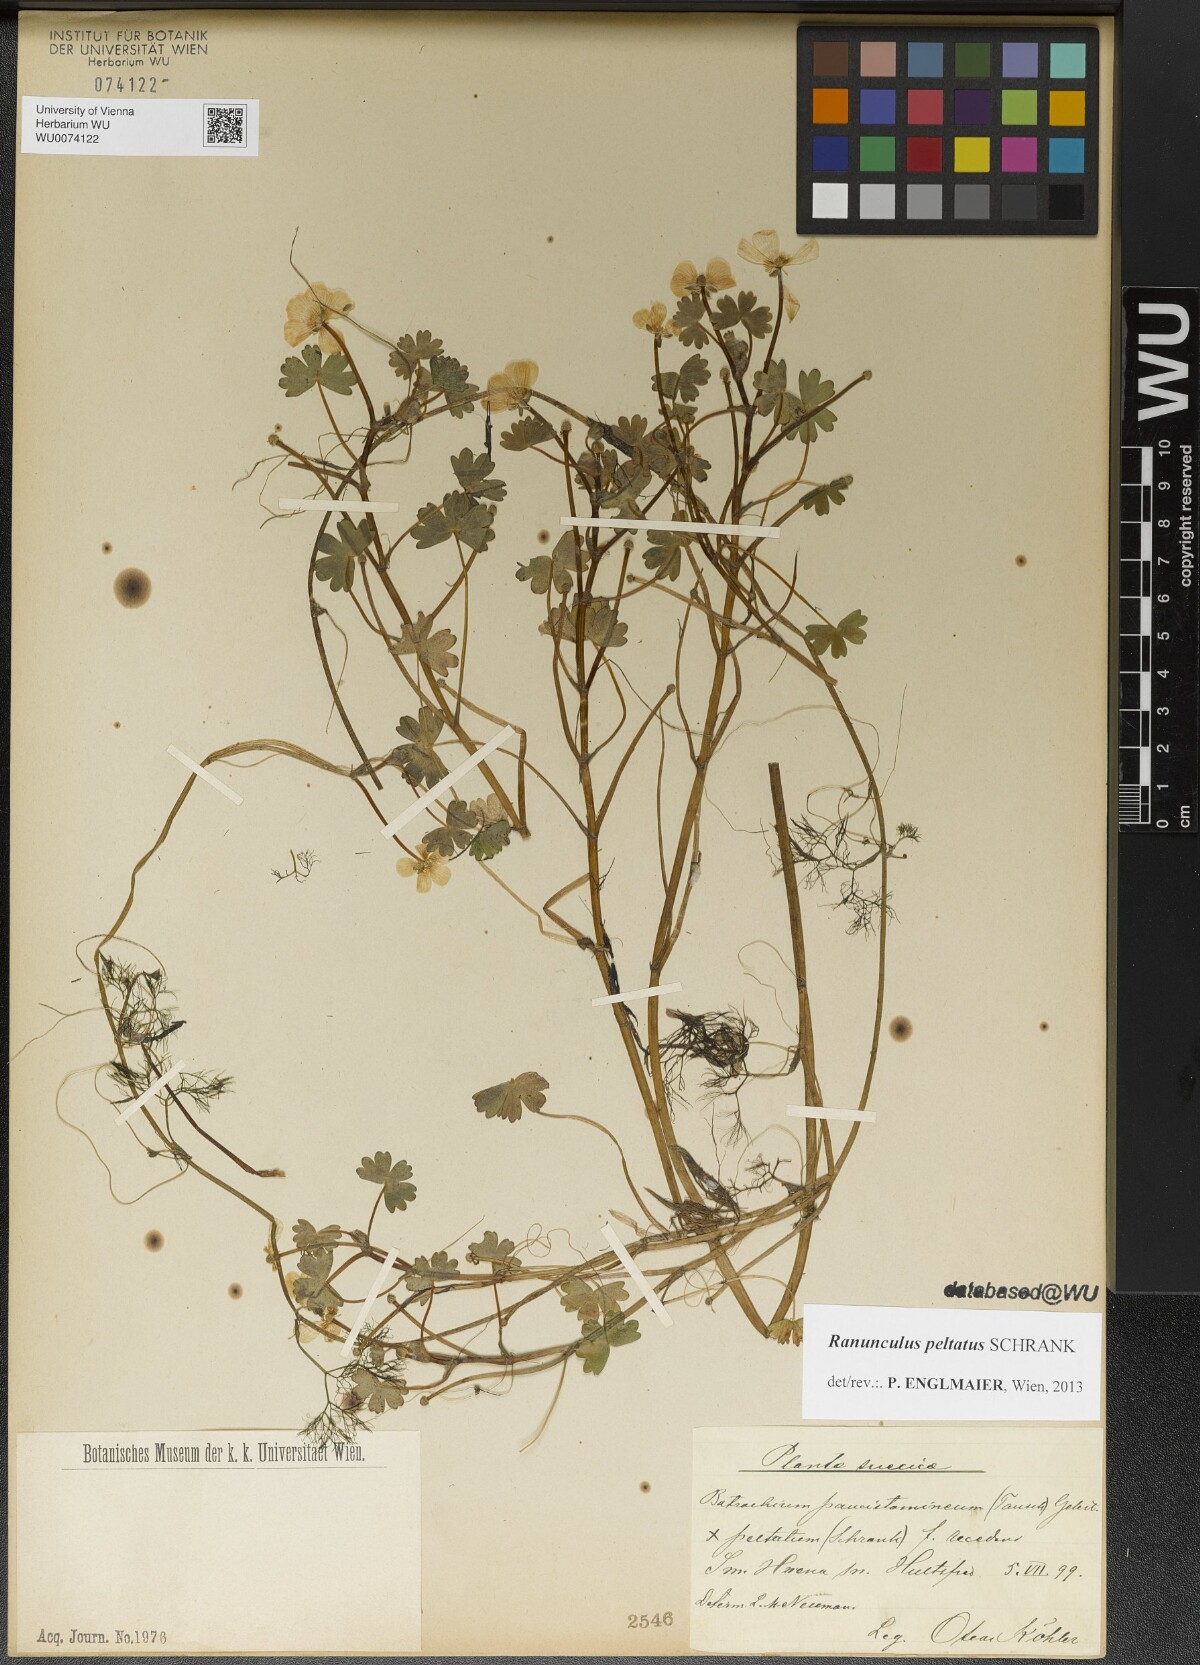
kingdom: Plantae
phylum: Tracheophyta
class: Magnoliopsida
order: Ranunculales
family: Ranunculaceae
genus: Ranunculus
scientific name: Ranunculus peltatus
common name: Pond water-crowfoot
